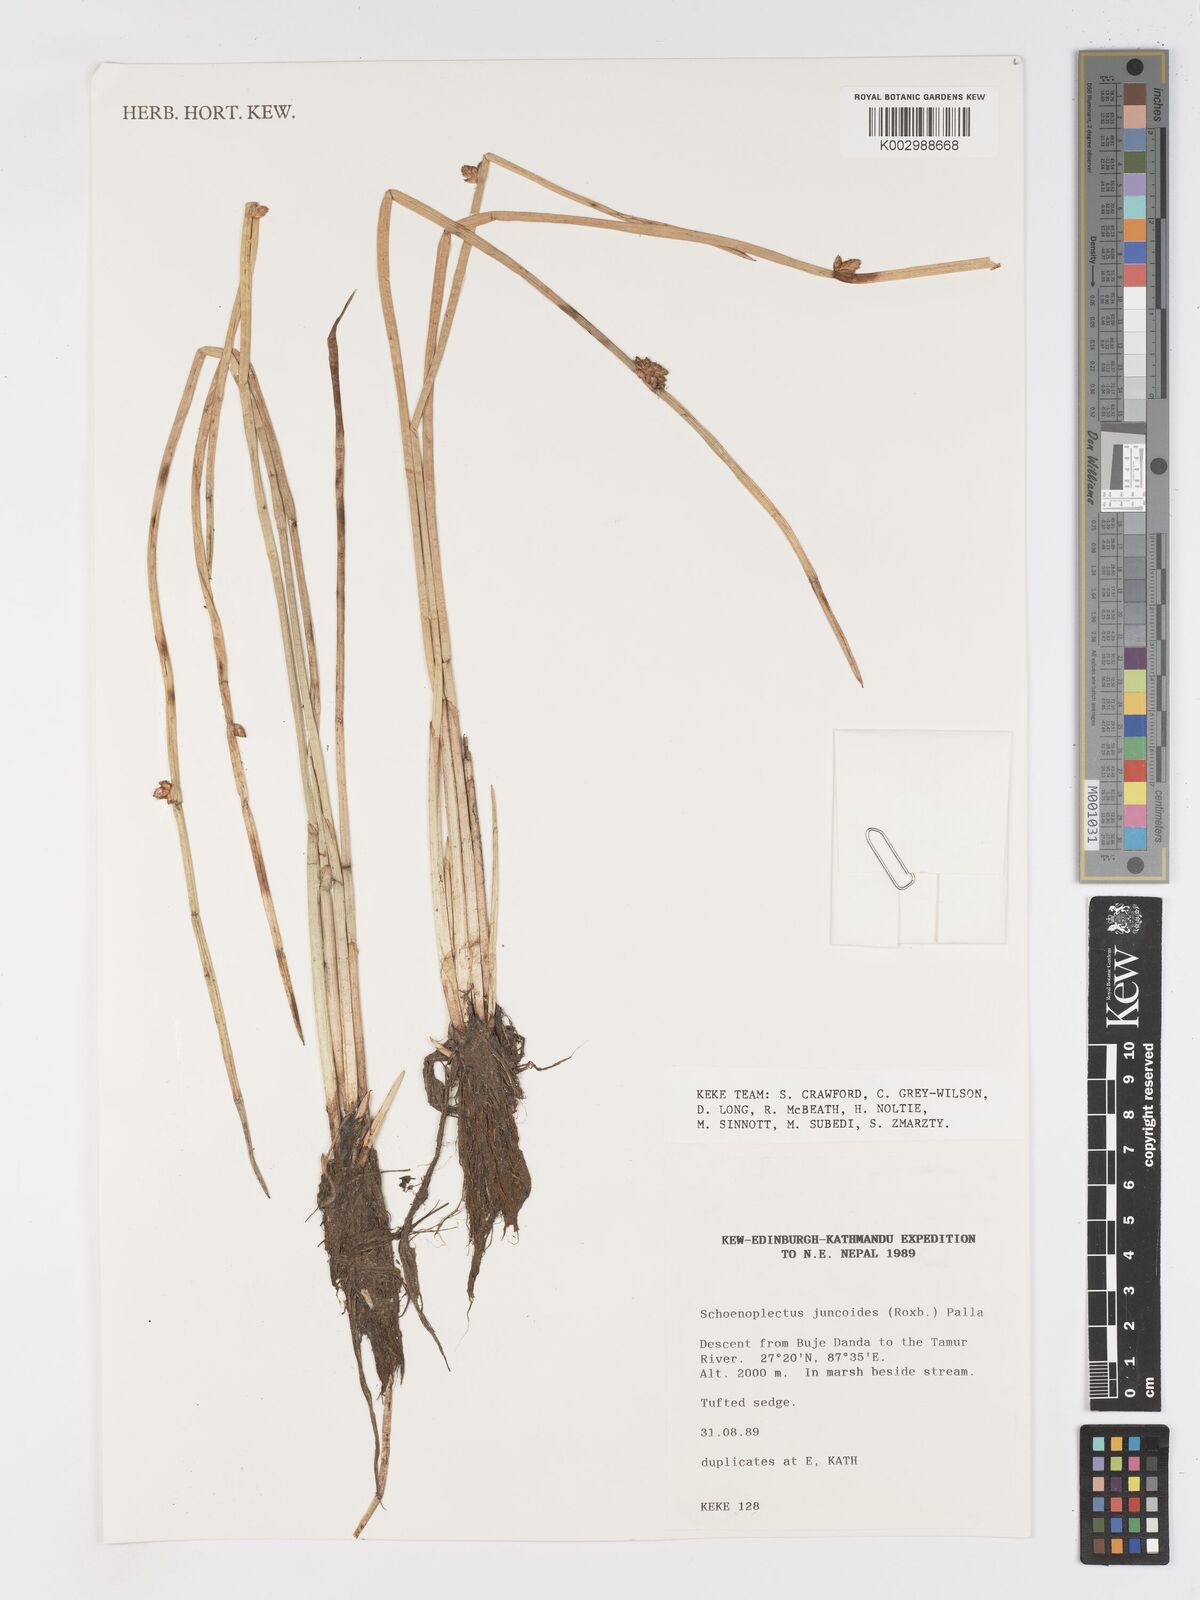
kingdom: Plantae
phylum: Tracheophyta
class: Liliopsida
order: Poales
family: Cyperaceae
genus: Schoenoplectiella
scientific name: Schoenoplectiella juncoides
